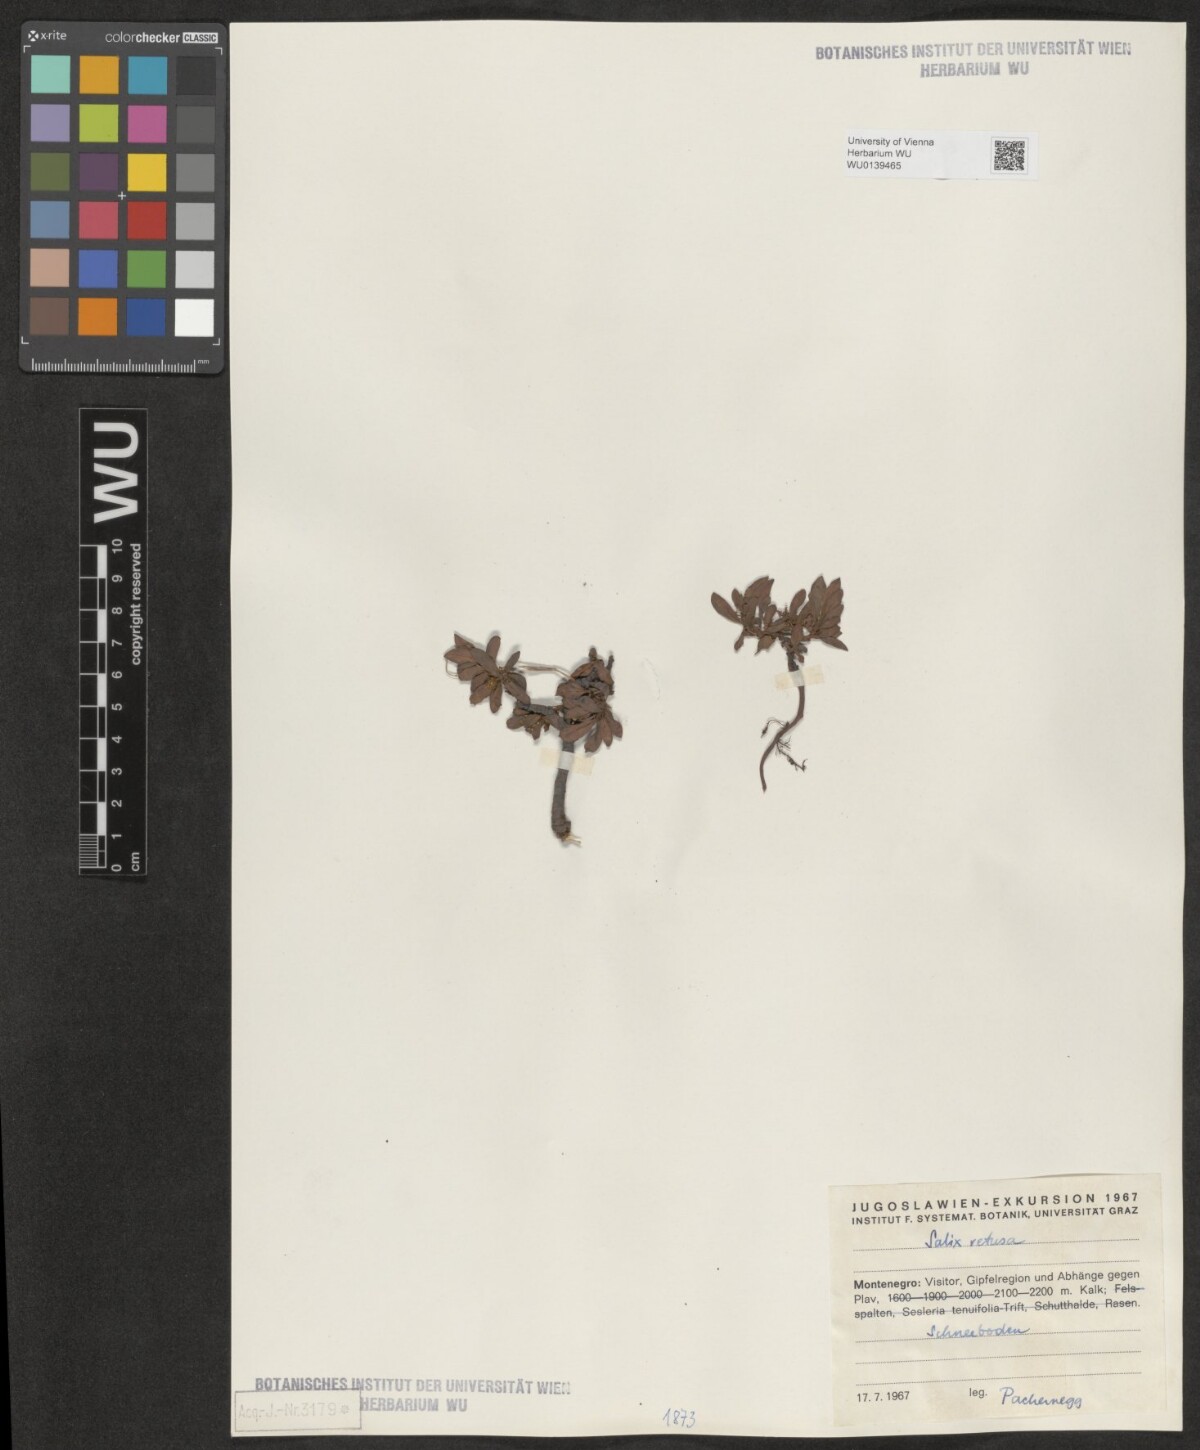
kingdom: Plantae
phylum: Tracheophyta
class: Magnoliopsida
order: Malpighiales
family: Salicaceae
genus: Salix
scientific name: Salix retusa
